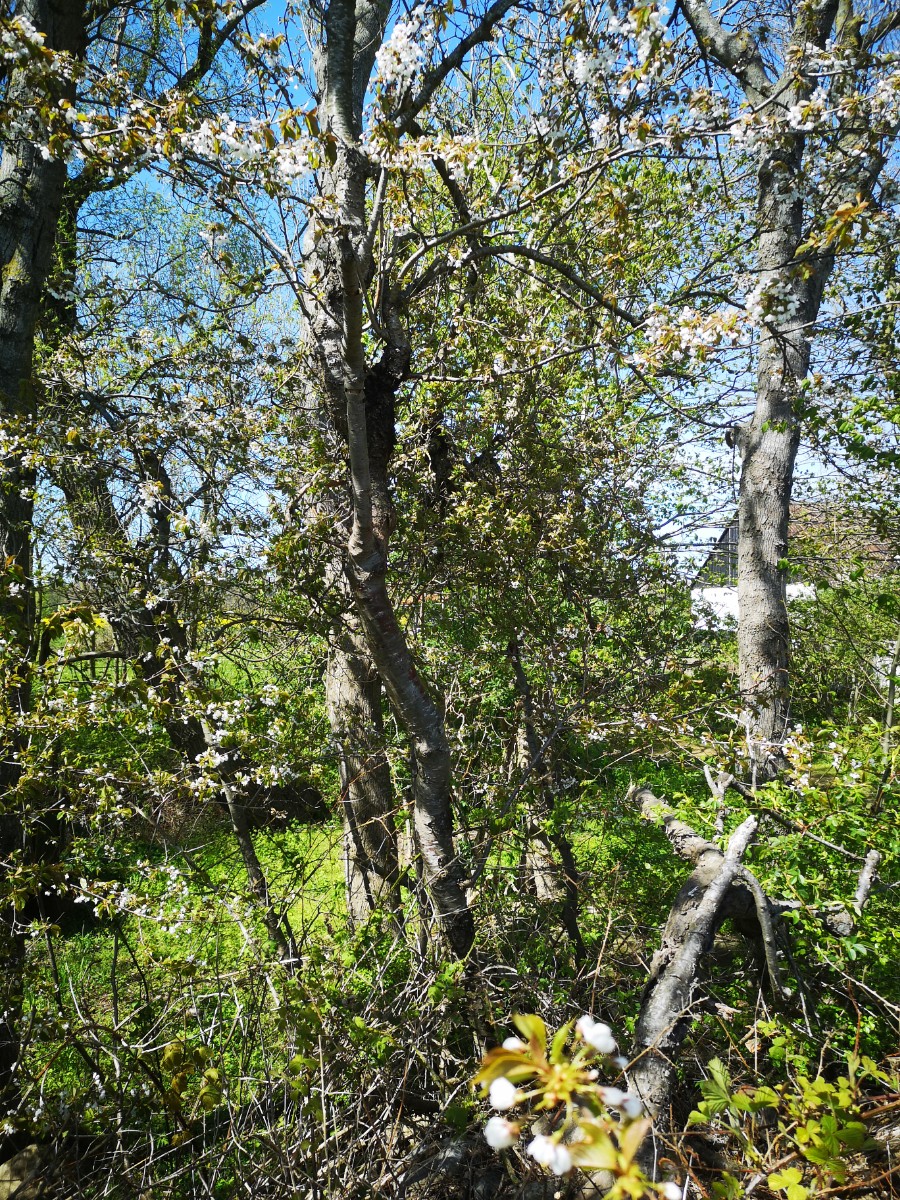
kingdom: Fungi
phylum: Ascomycota
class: Taphrinomycetes
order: Taphrinales
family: Taphrinaceae
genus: Taphrina
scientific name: Taphrina wiesneri
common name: Cherry leaf curl
